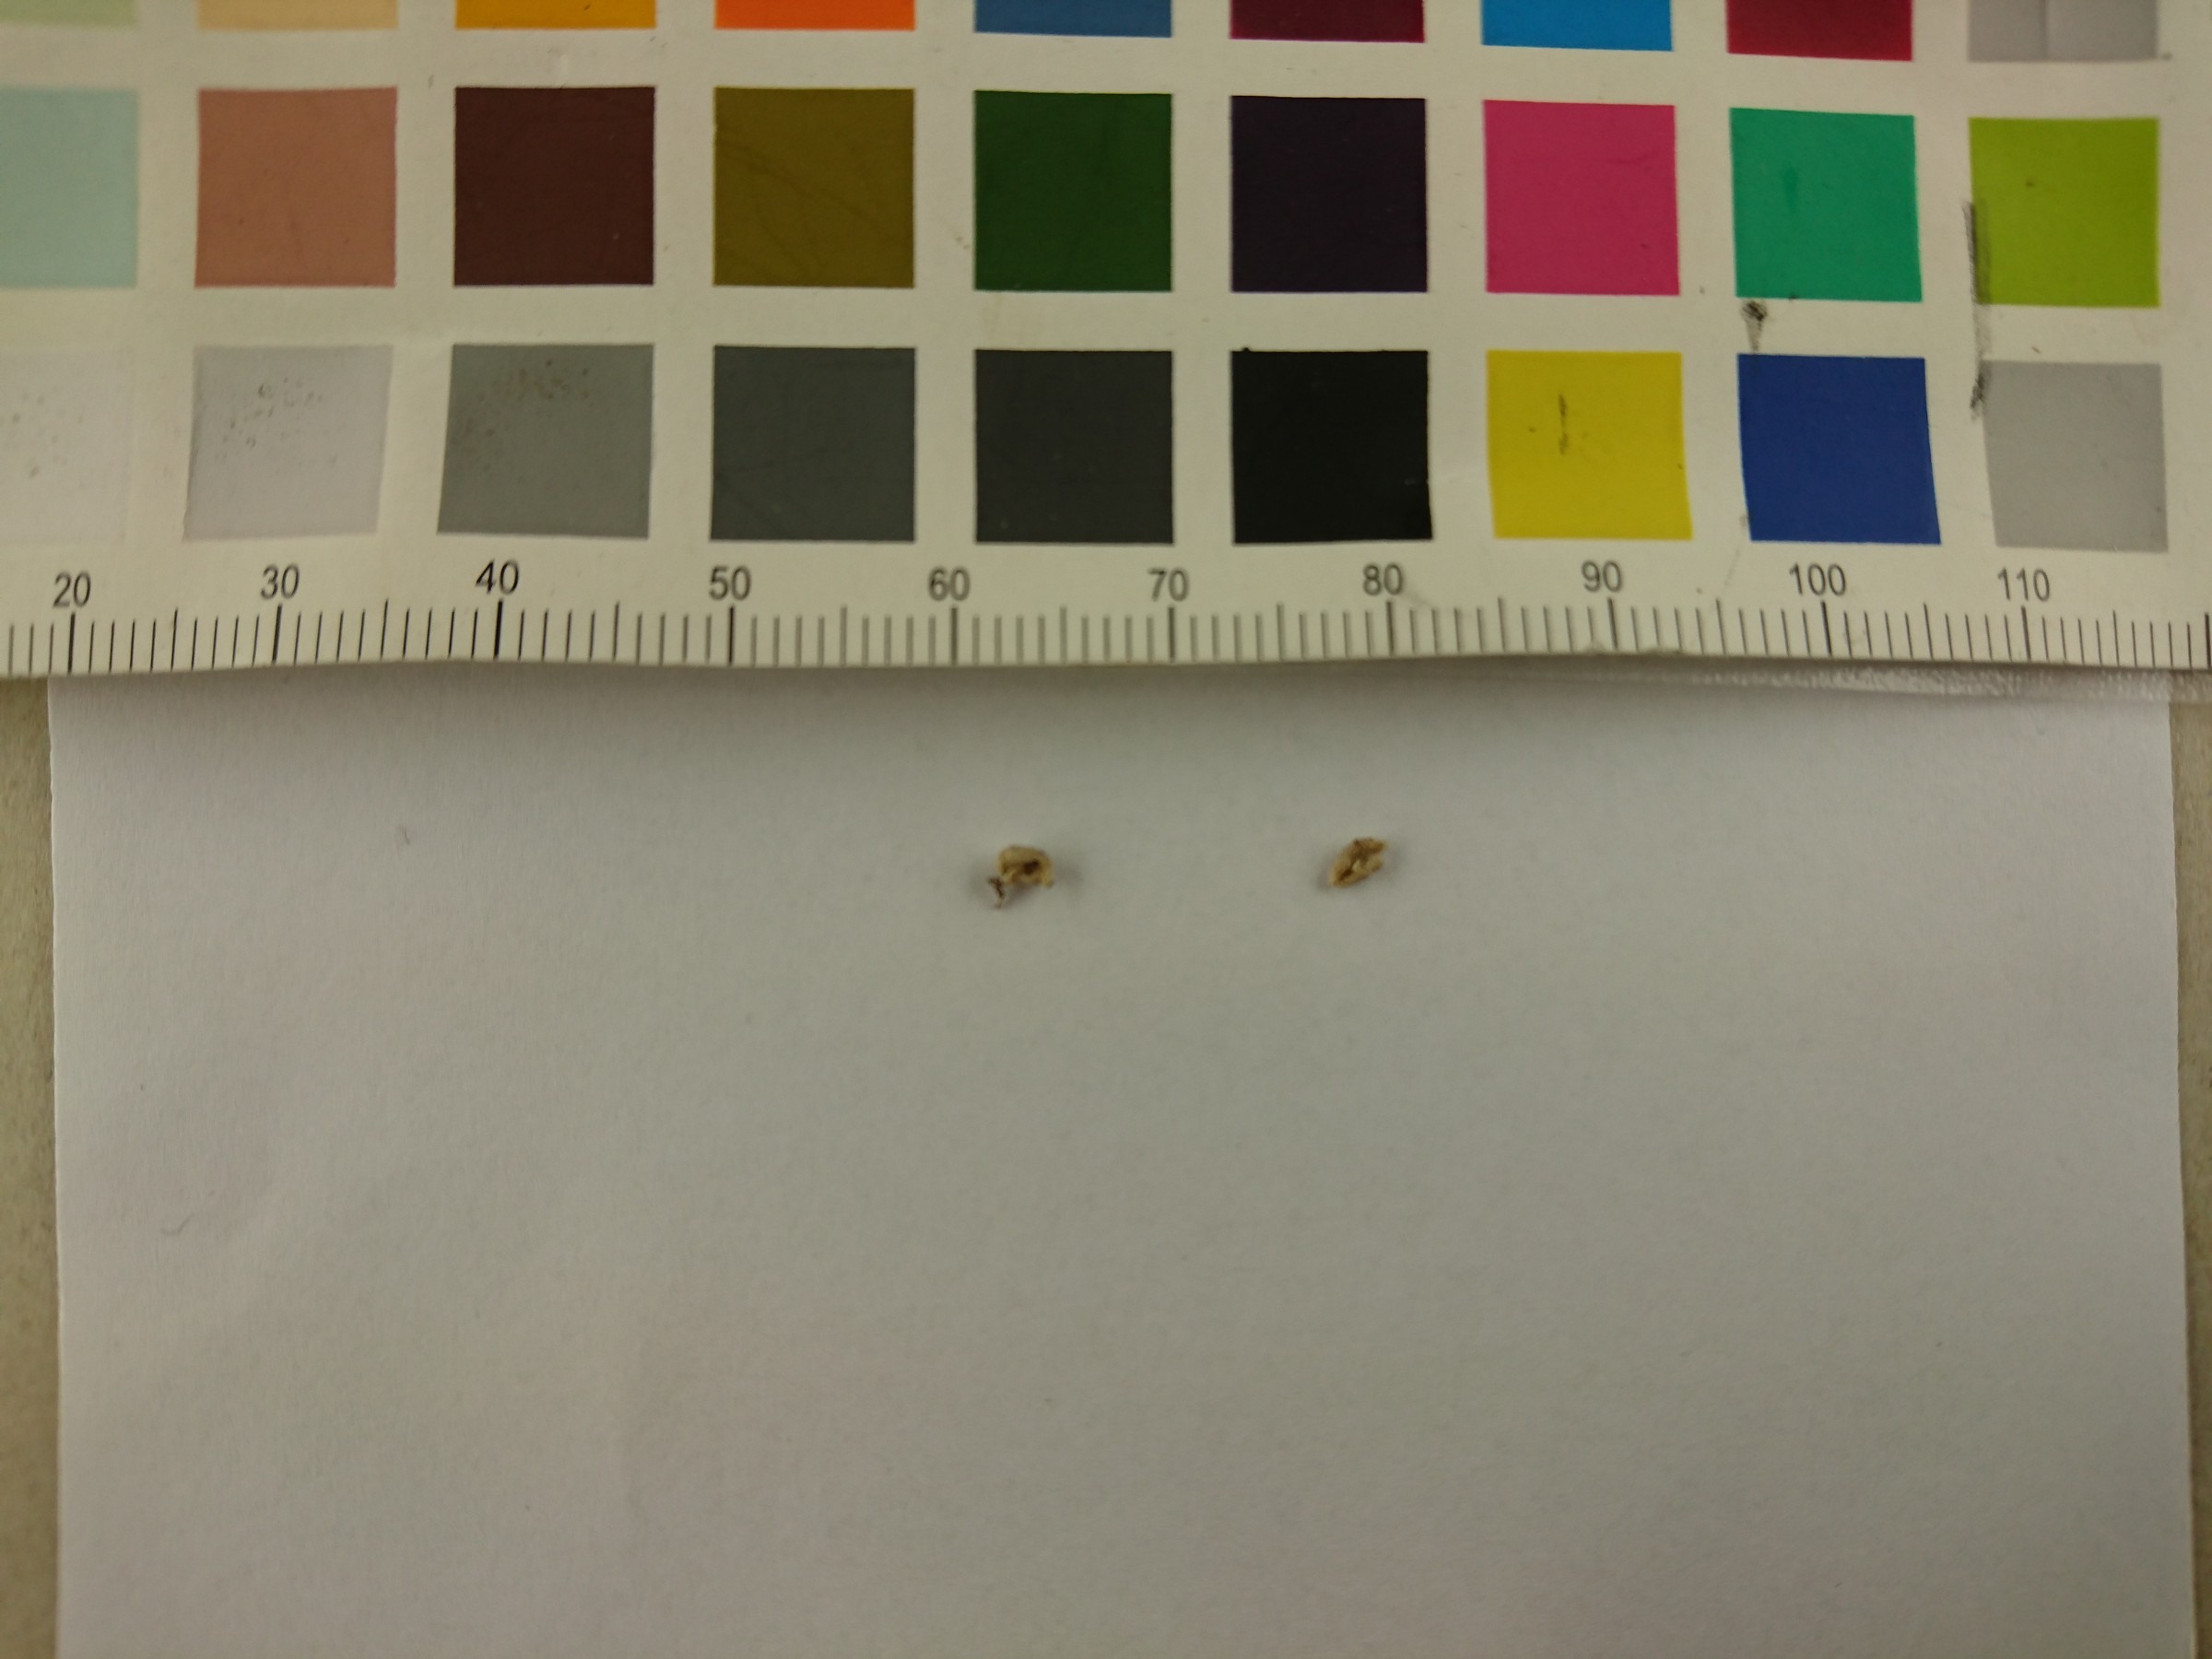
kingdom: Fungi
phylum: Basidiomycota
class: Agaricomycetes
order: Agaricales
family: Mycenaceae
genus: Mycena
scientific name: Mycena clavularis
